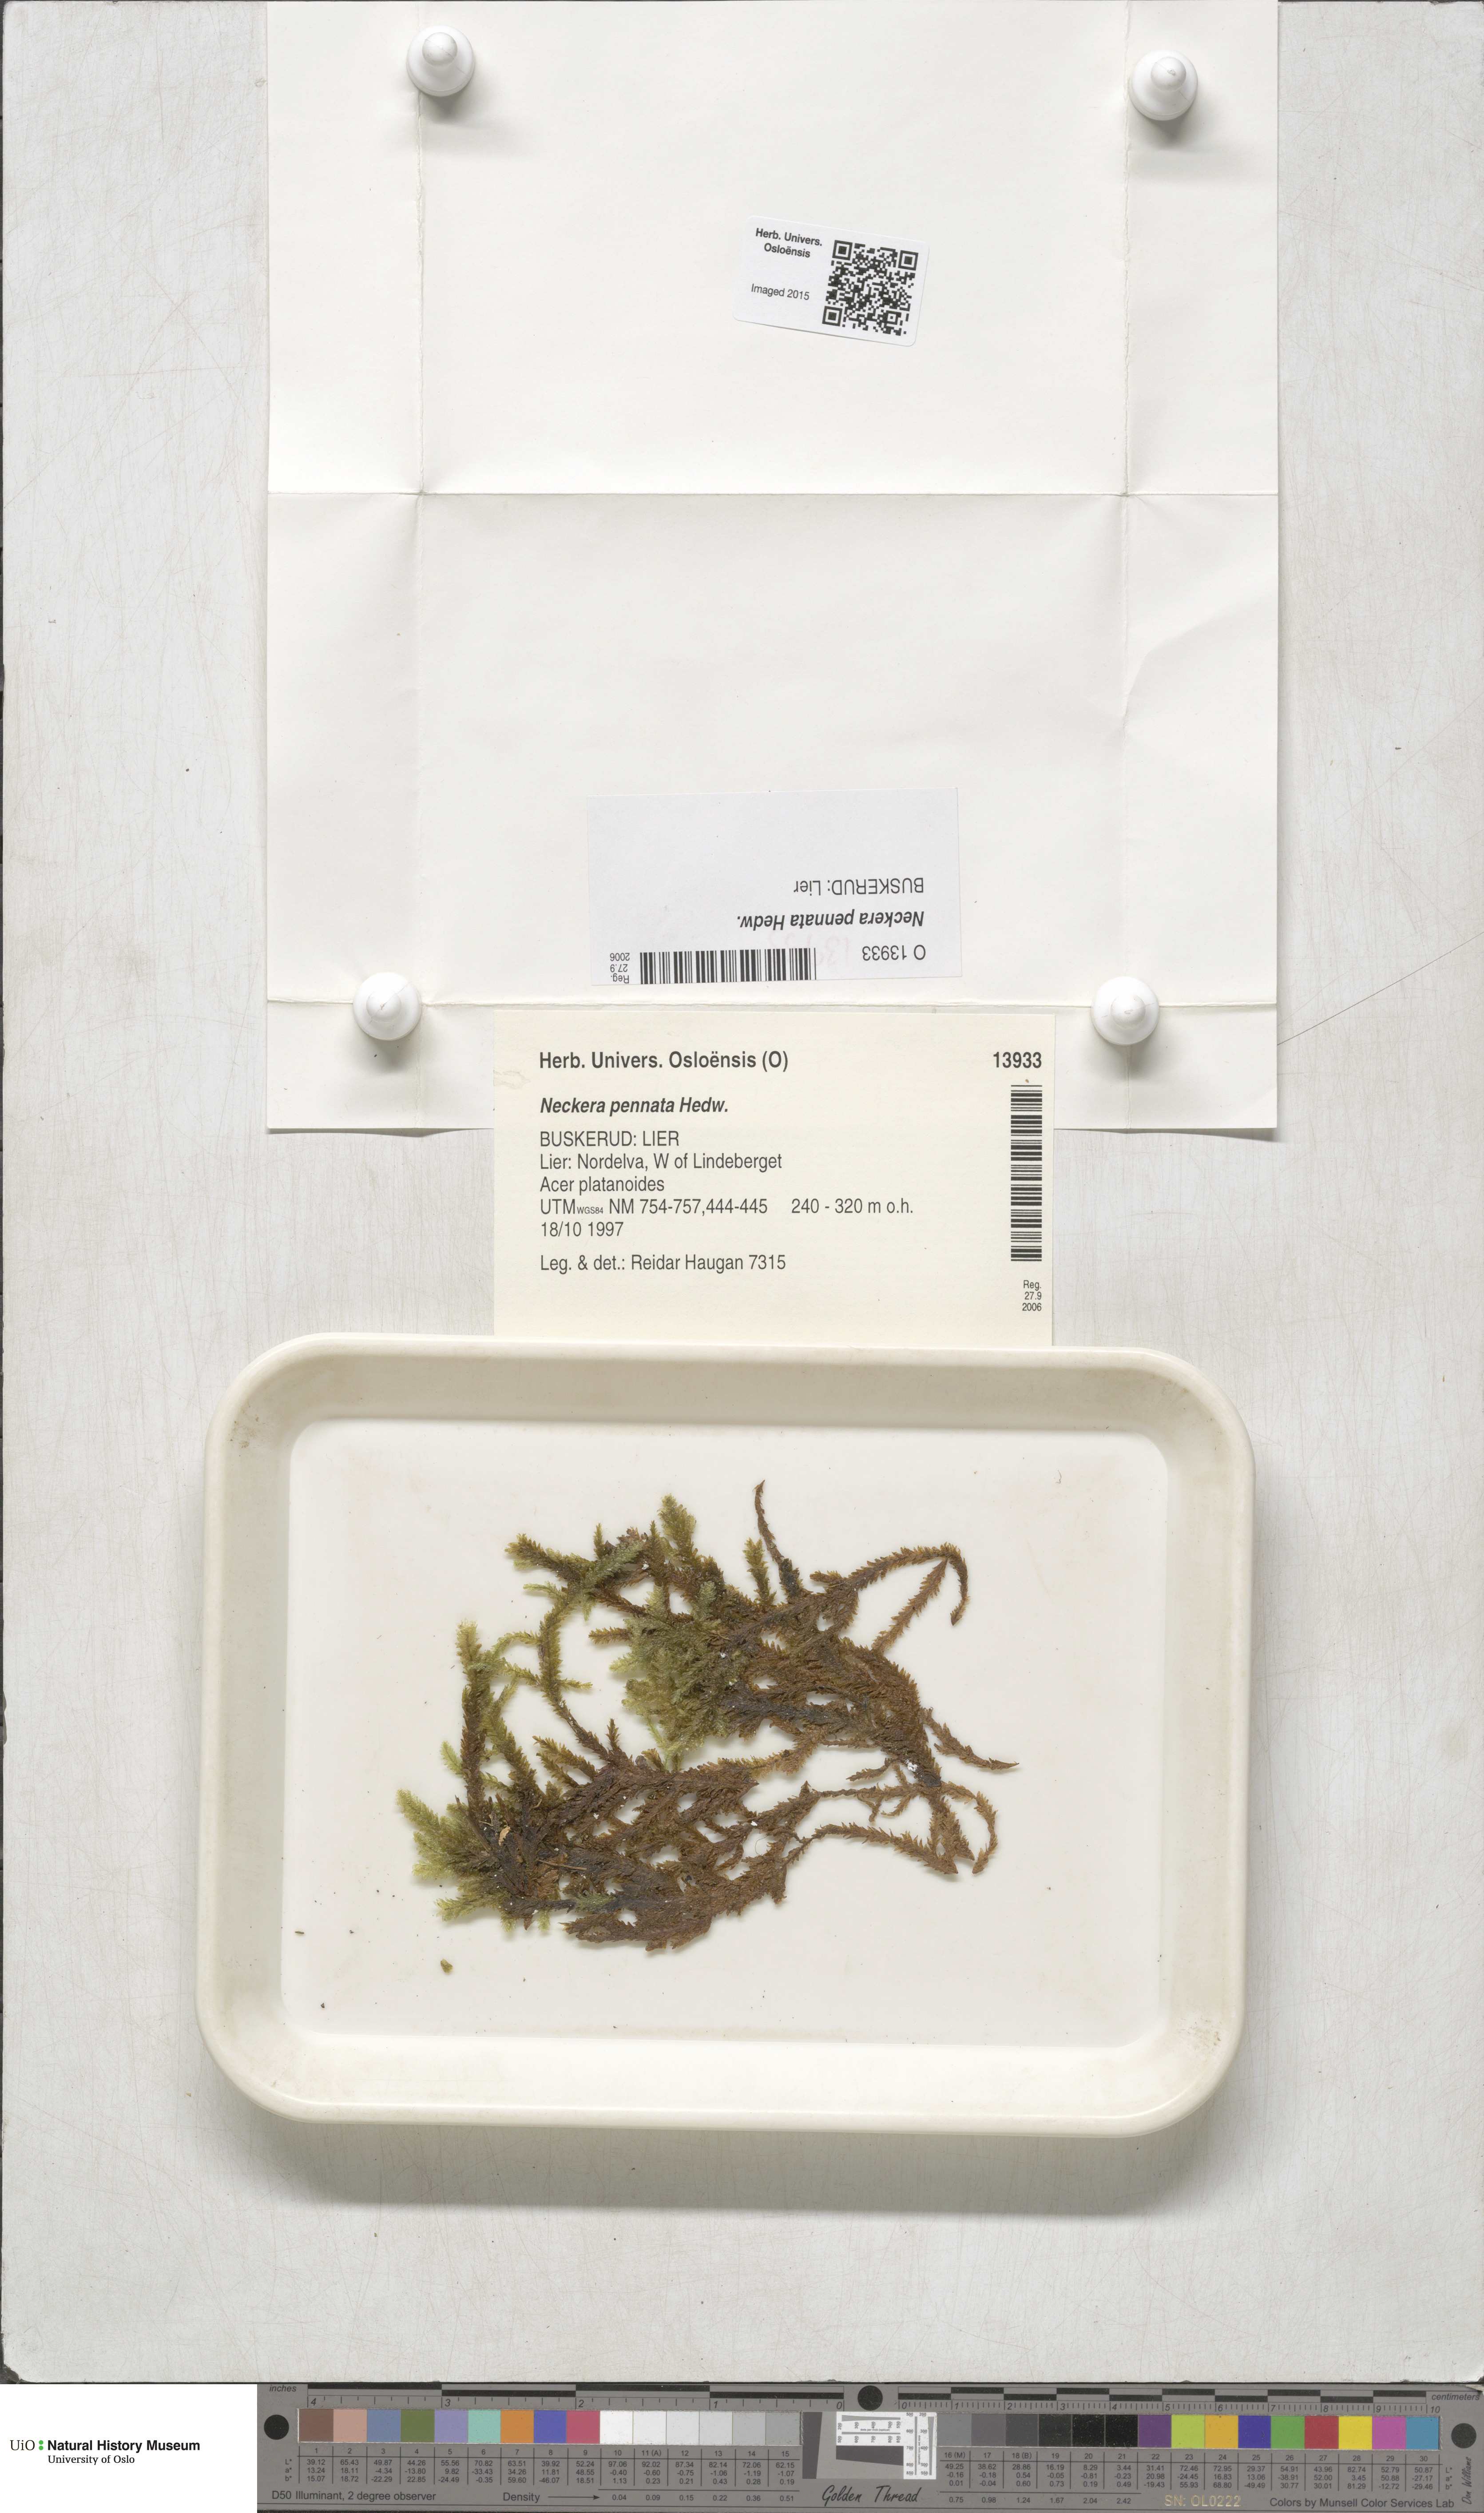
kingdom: Plantae
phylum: Bryophyta
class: Bryopsida
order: Hypnales
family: Neckeraceae
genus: Neckera
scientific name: Neckera pennata
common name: Feathery neckera
